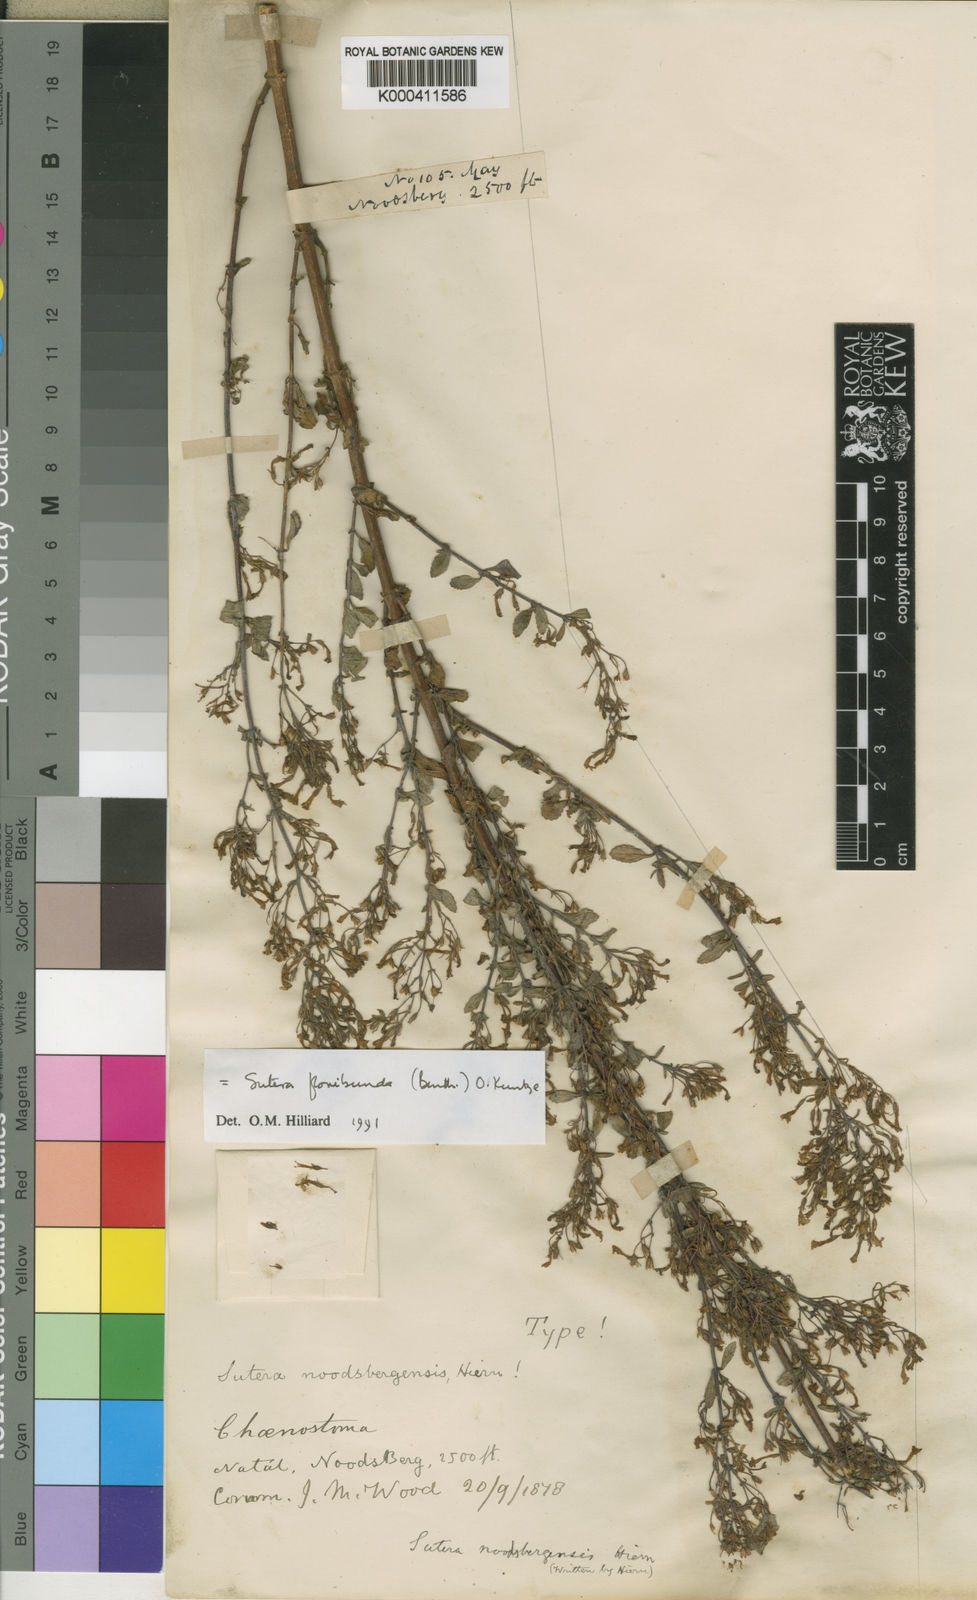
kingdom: Plantae
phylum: Tracheophyta
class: Magnoliopsida
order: Lamiales
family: Scrophulariaceae
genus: Chaenostoma
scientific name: Chaenostoma floribundum
